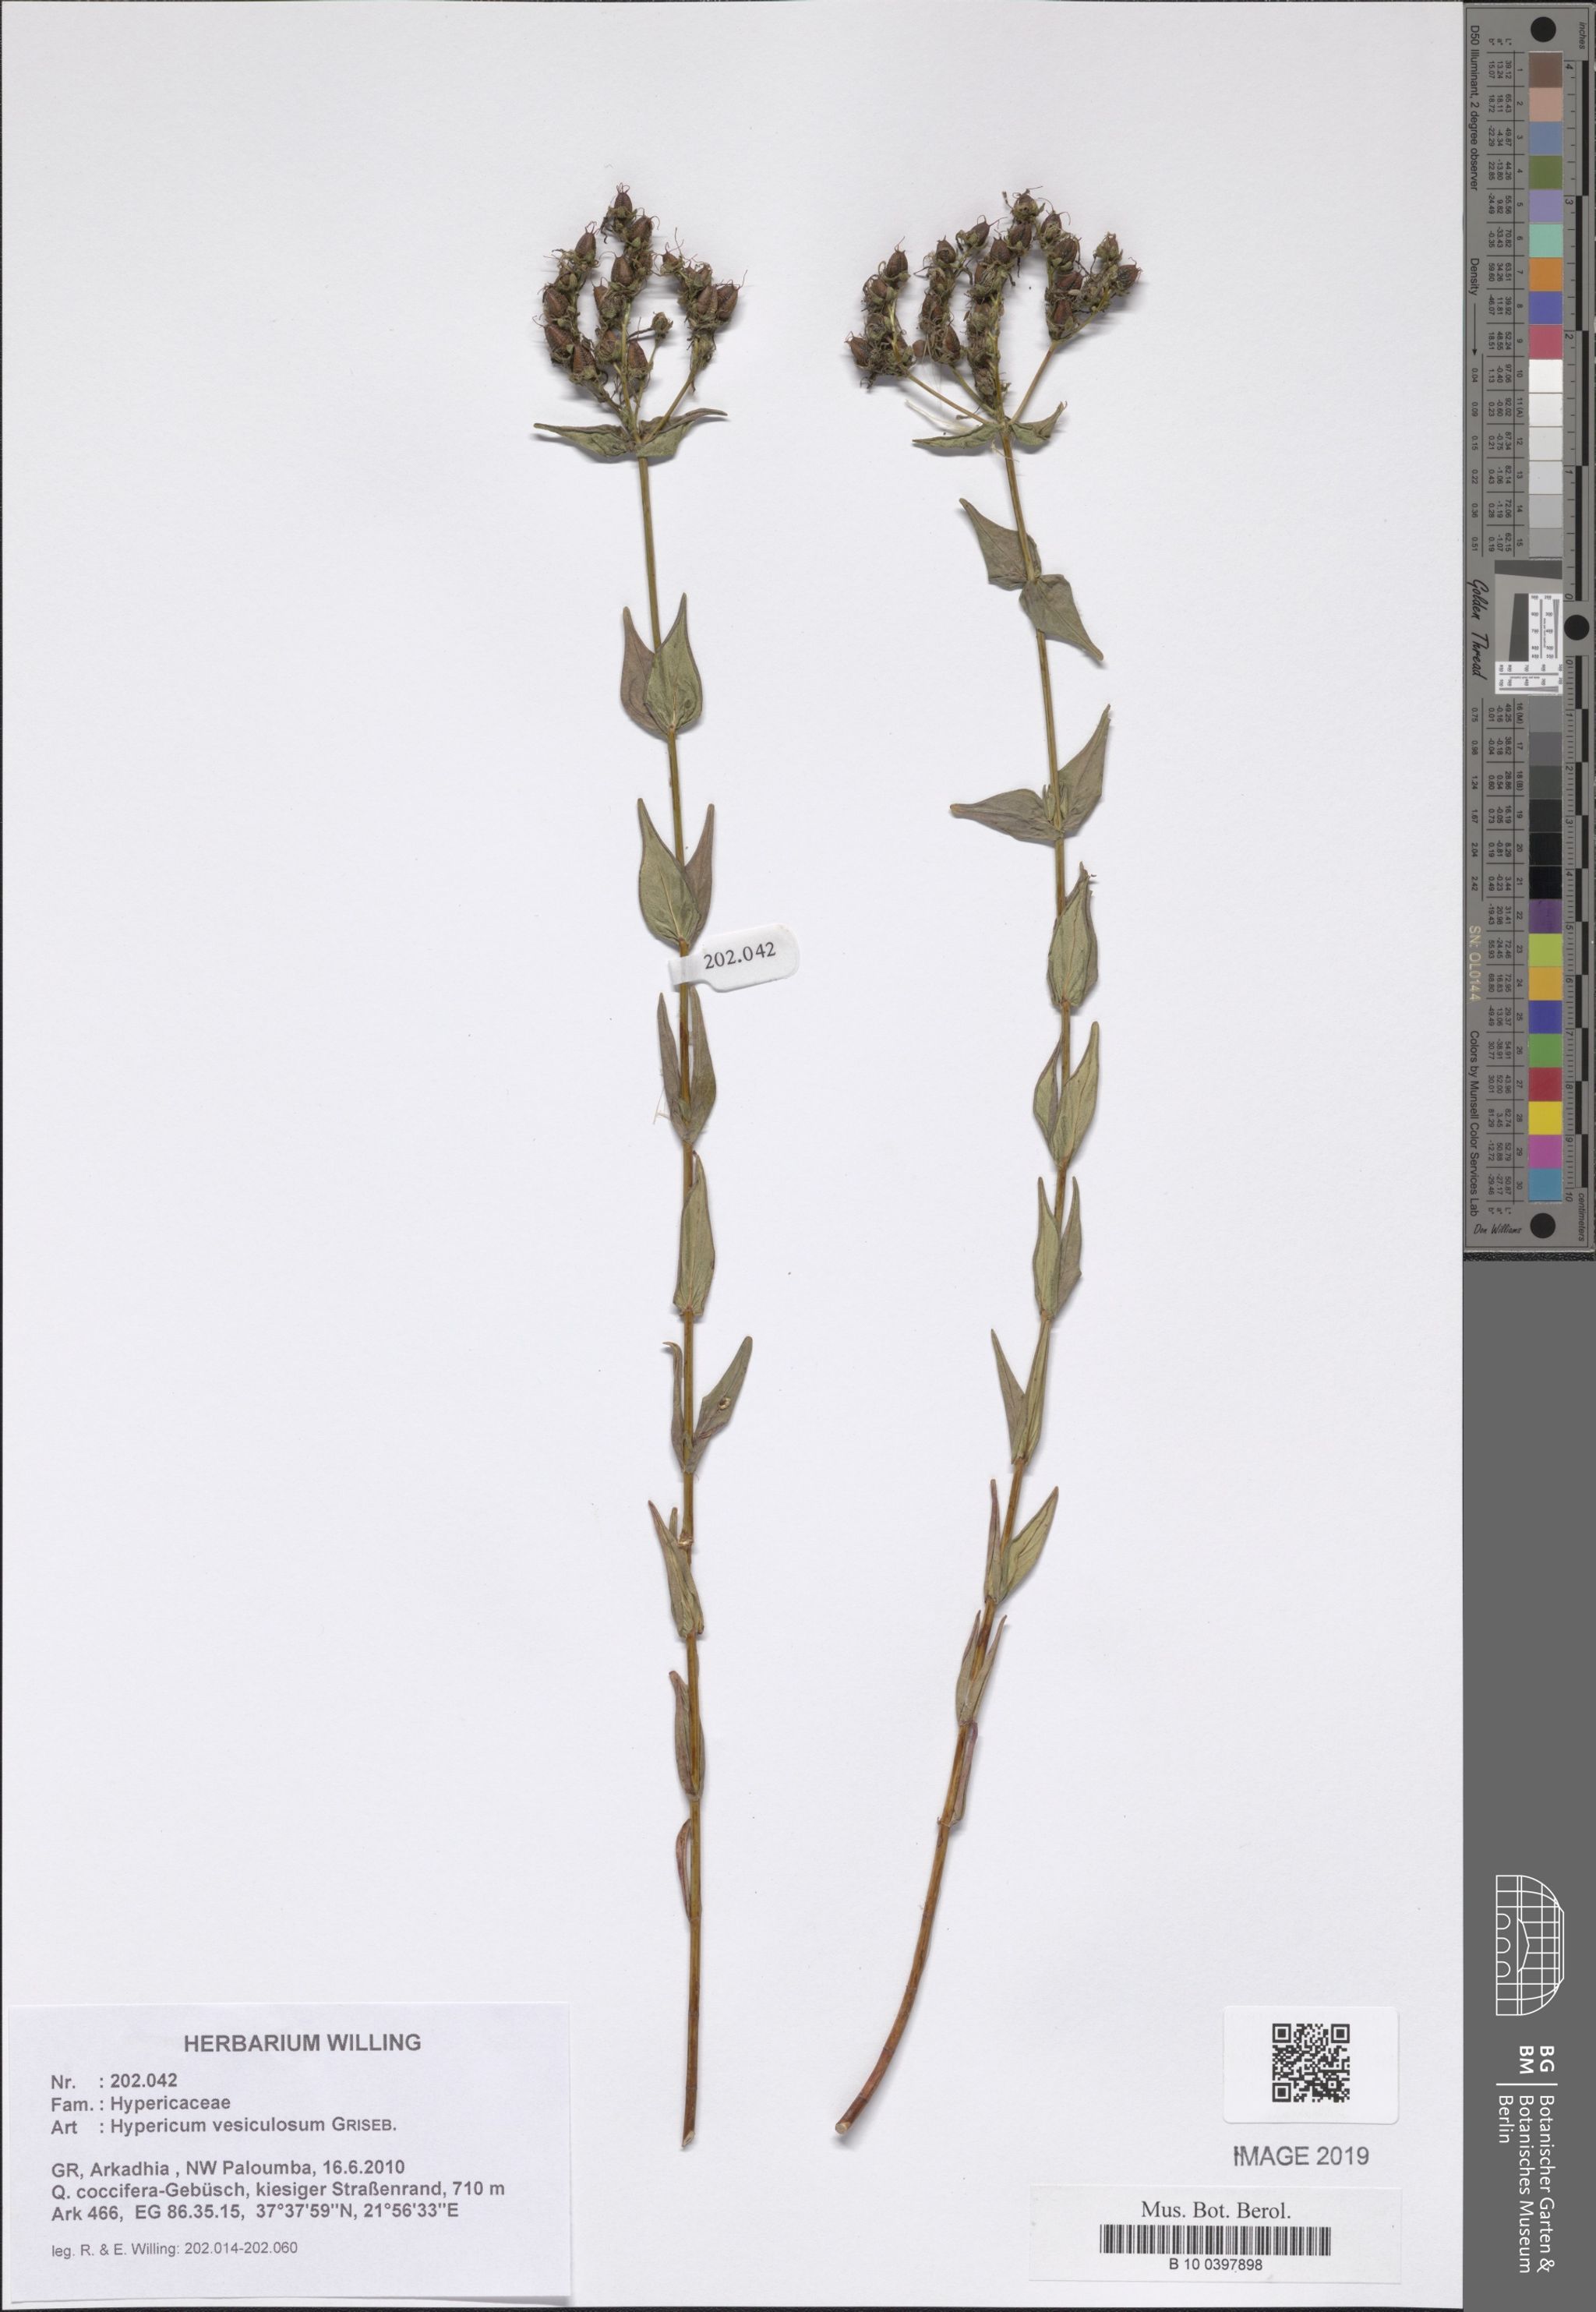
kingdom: Plantae
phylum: Tracheophyta
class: Magnoliopsida
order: Malpighiales
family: Hypericaceae
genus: Hypericum
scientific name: Hypericum vesiculosum
